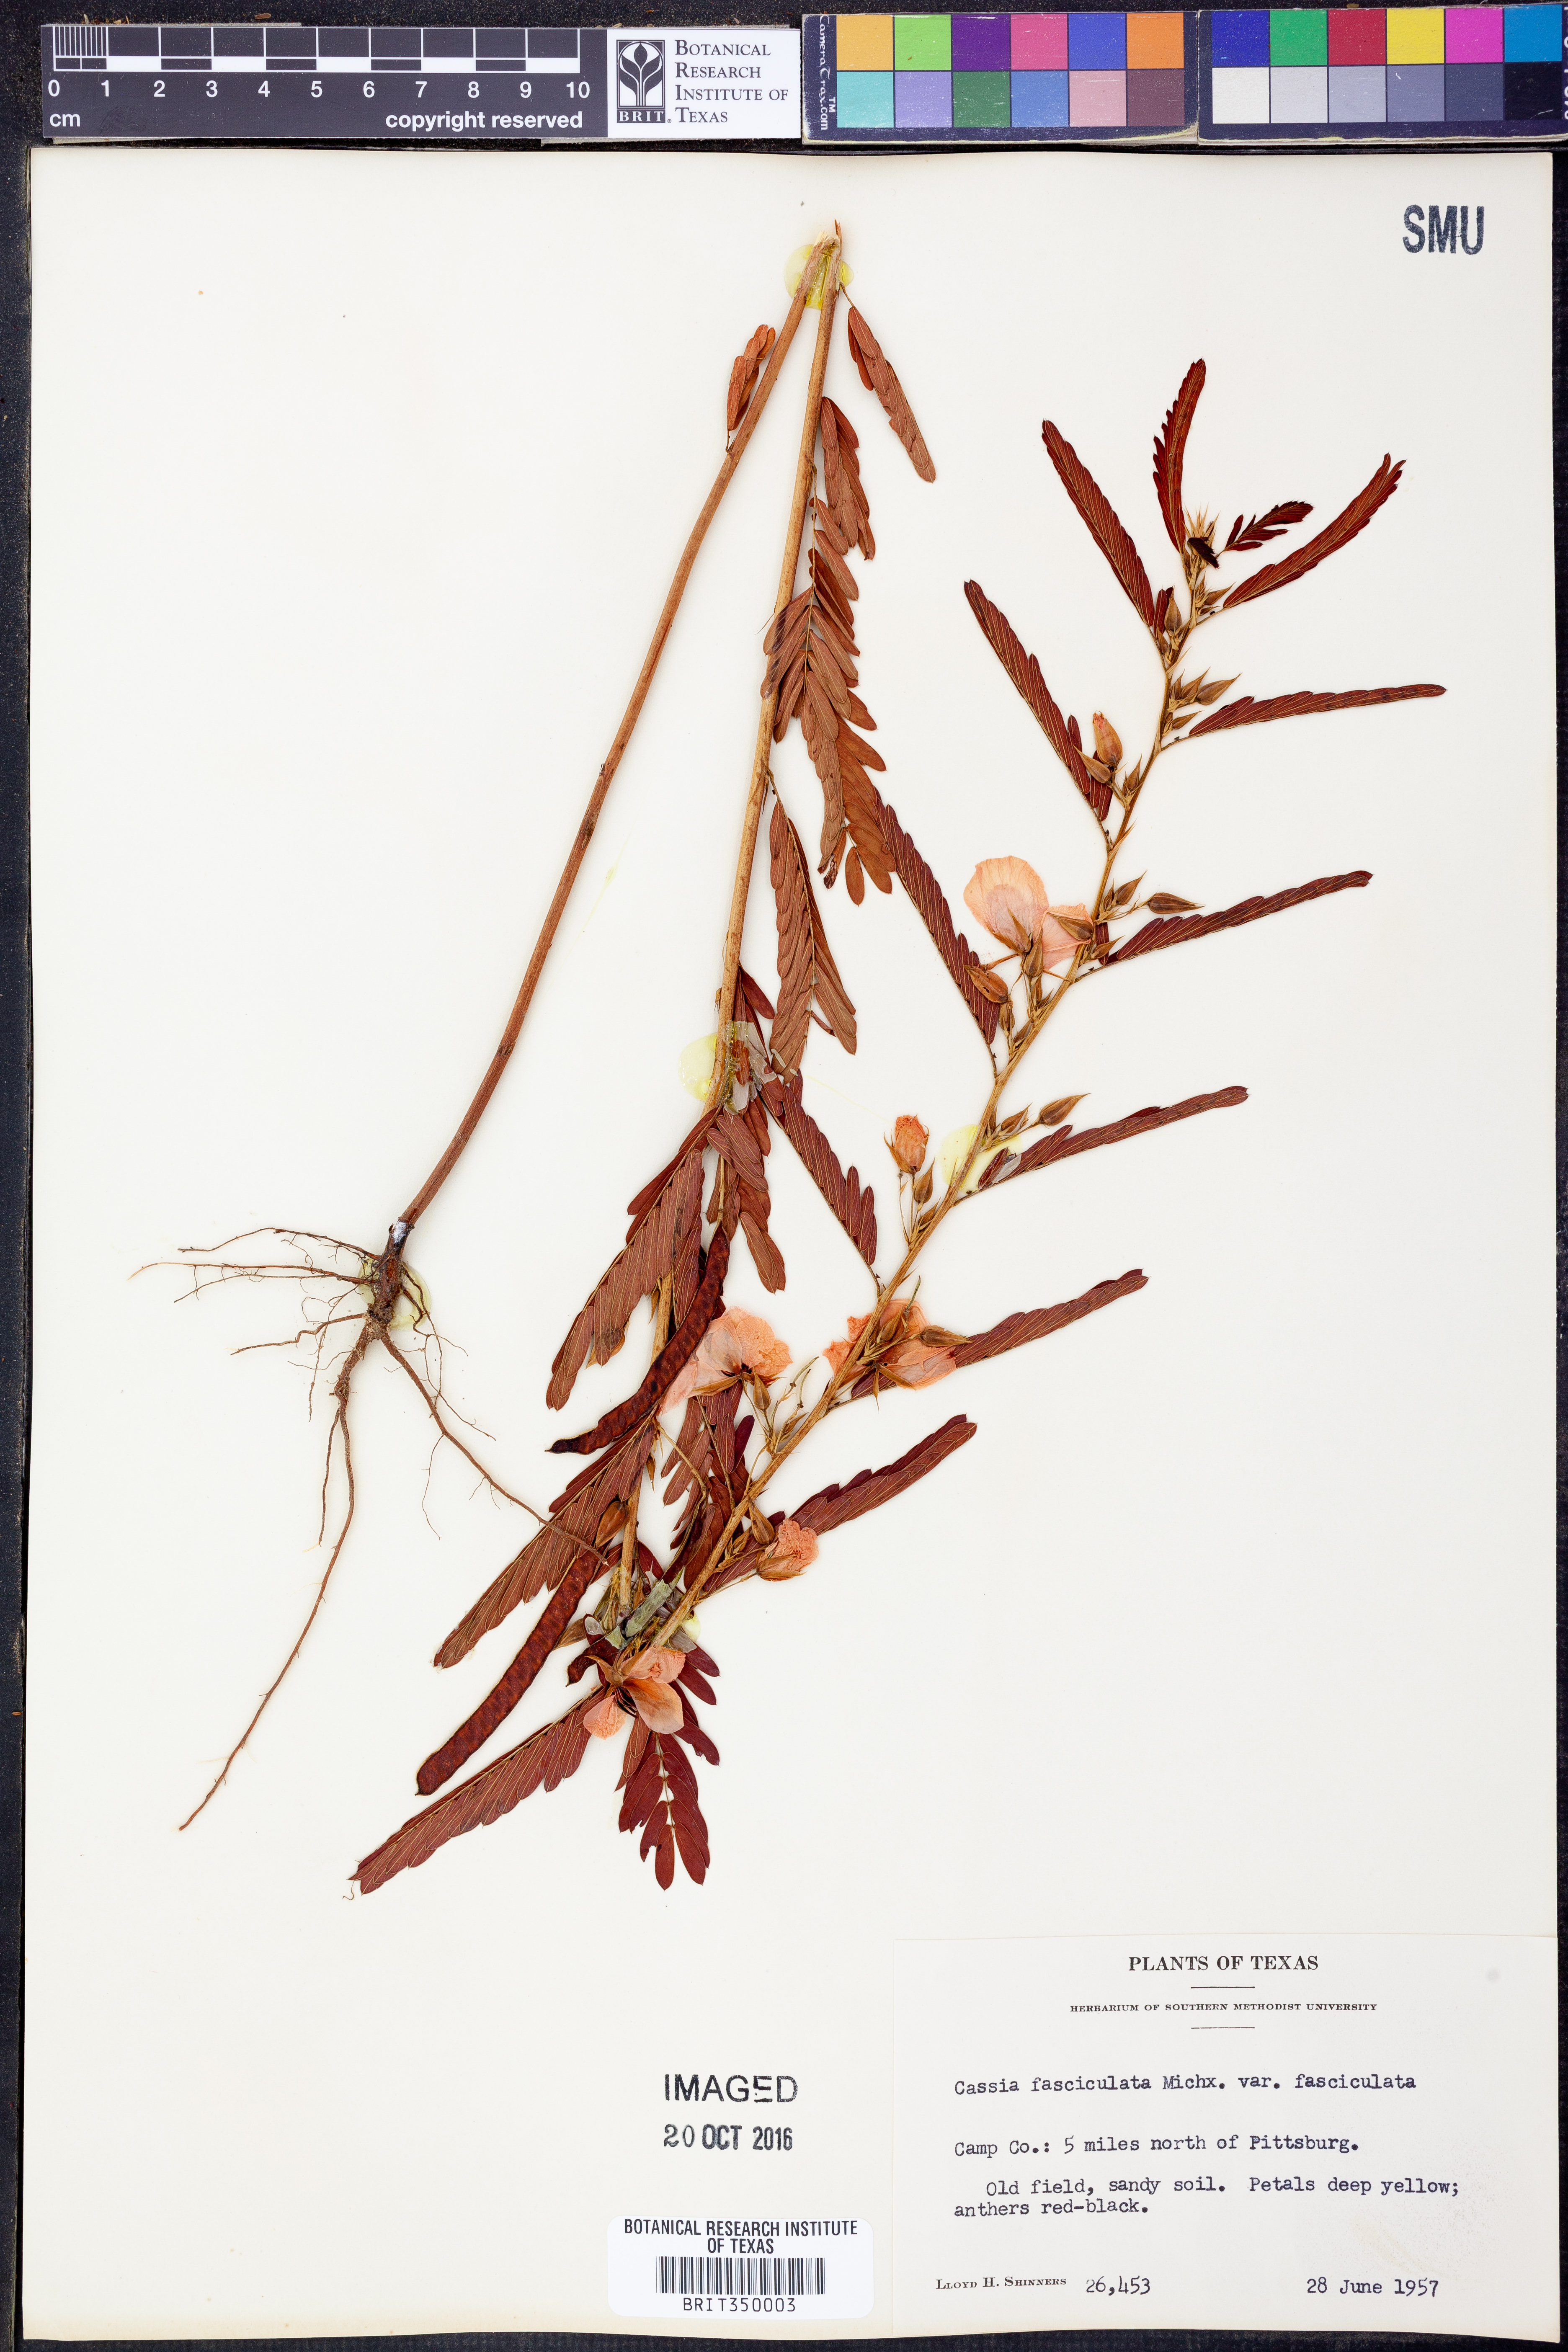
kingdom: Plantae
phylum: Tracheophyta
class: Magnoliopsida
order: Fabales
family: Fabaceae
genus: Chamaecrista
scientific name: Chamaecrista fasciculata
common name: Golden cassia
